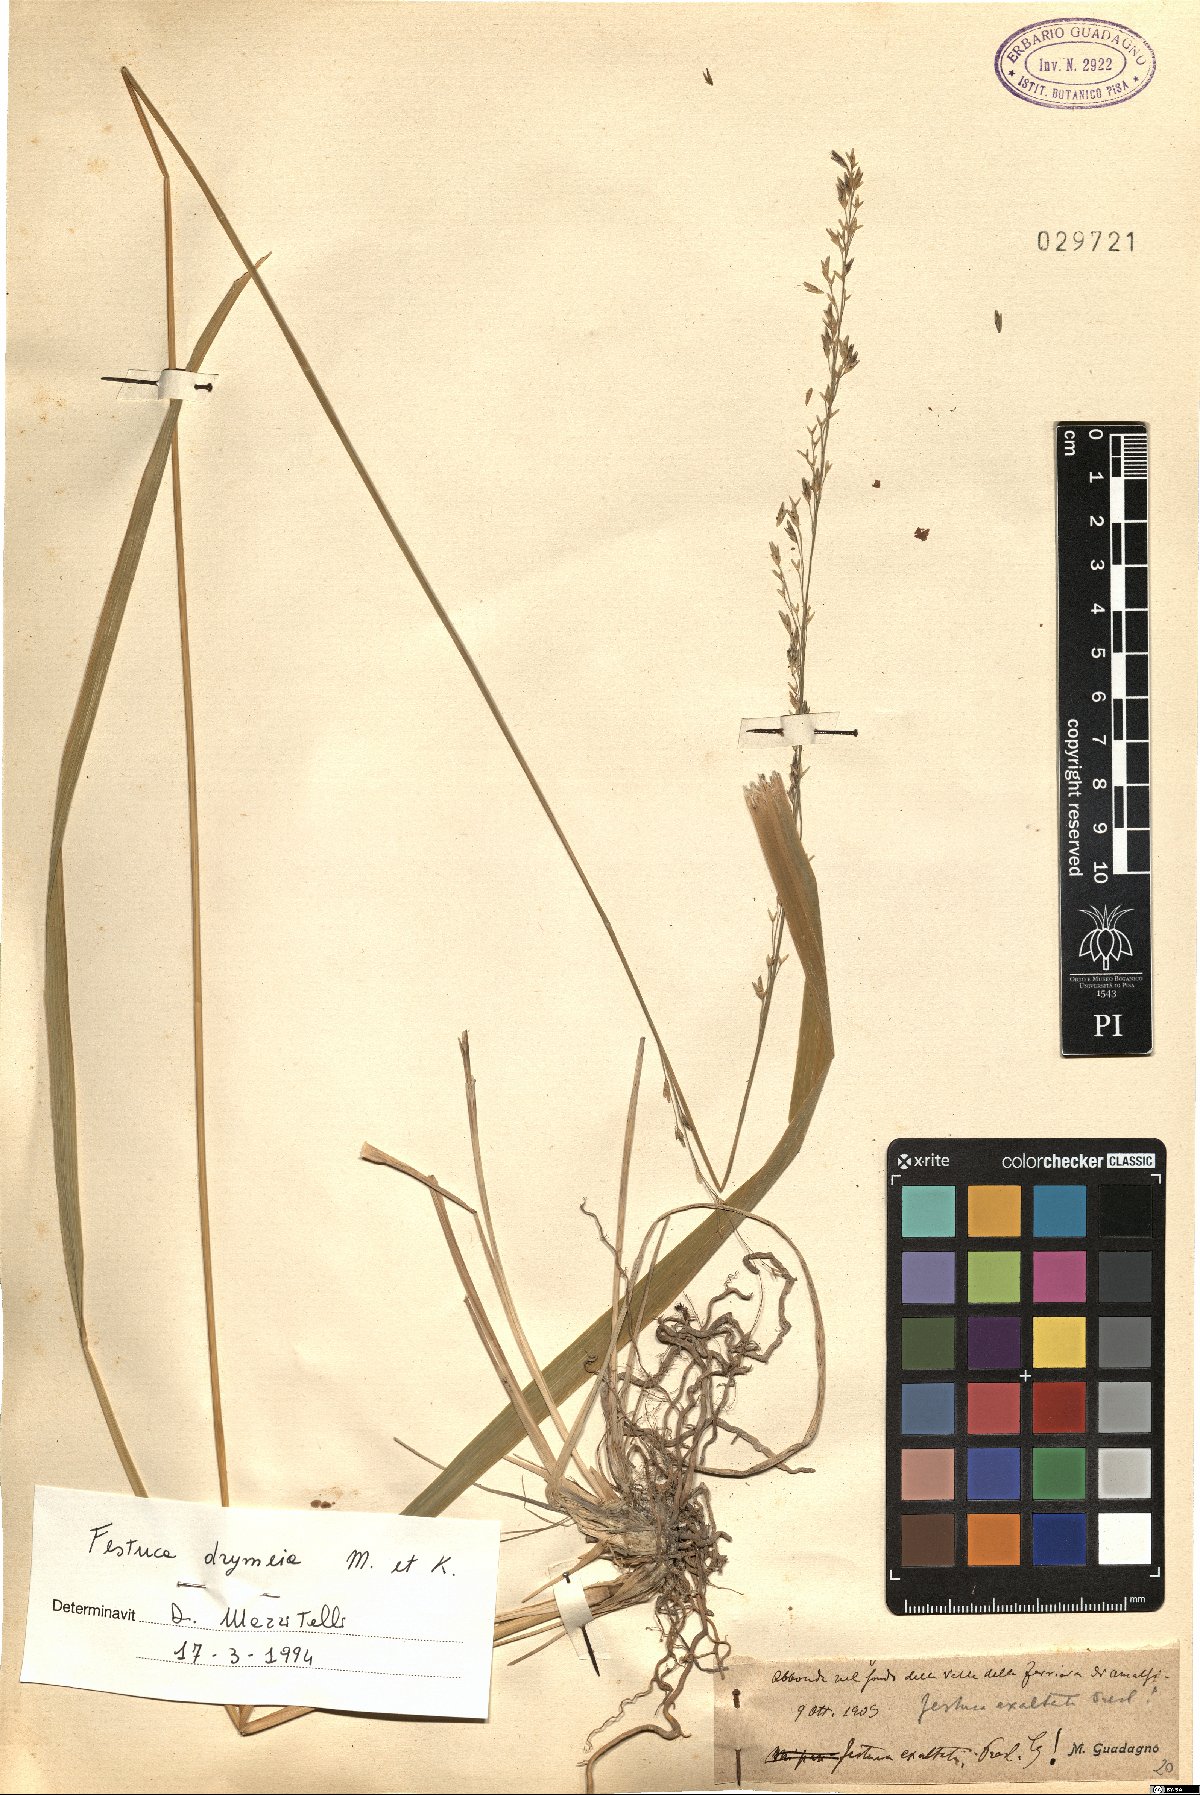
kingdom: Plantae
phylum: Tracheophyta
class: Liliopsida
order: Poales
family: Poaceae
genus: Festuca
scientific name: Festuca drymeja
